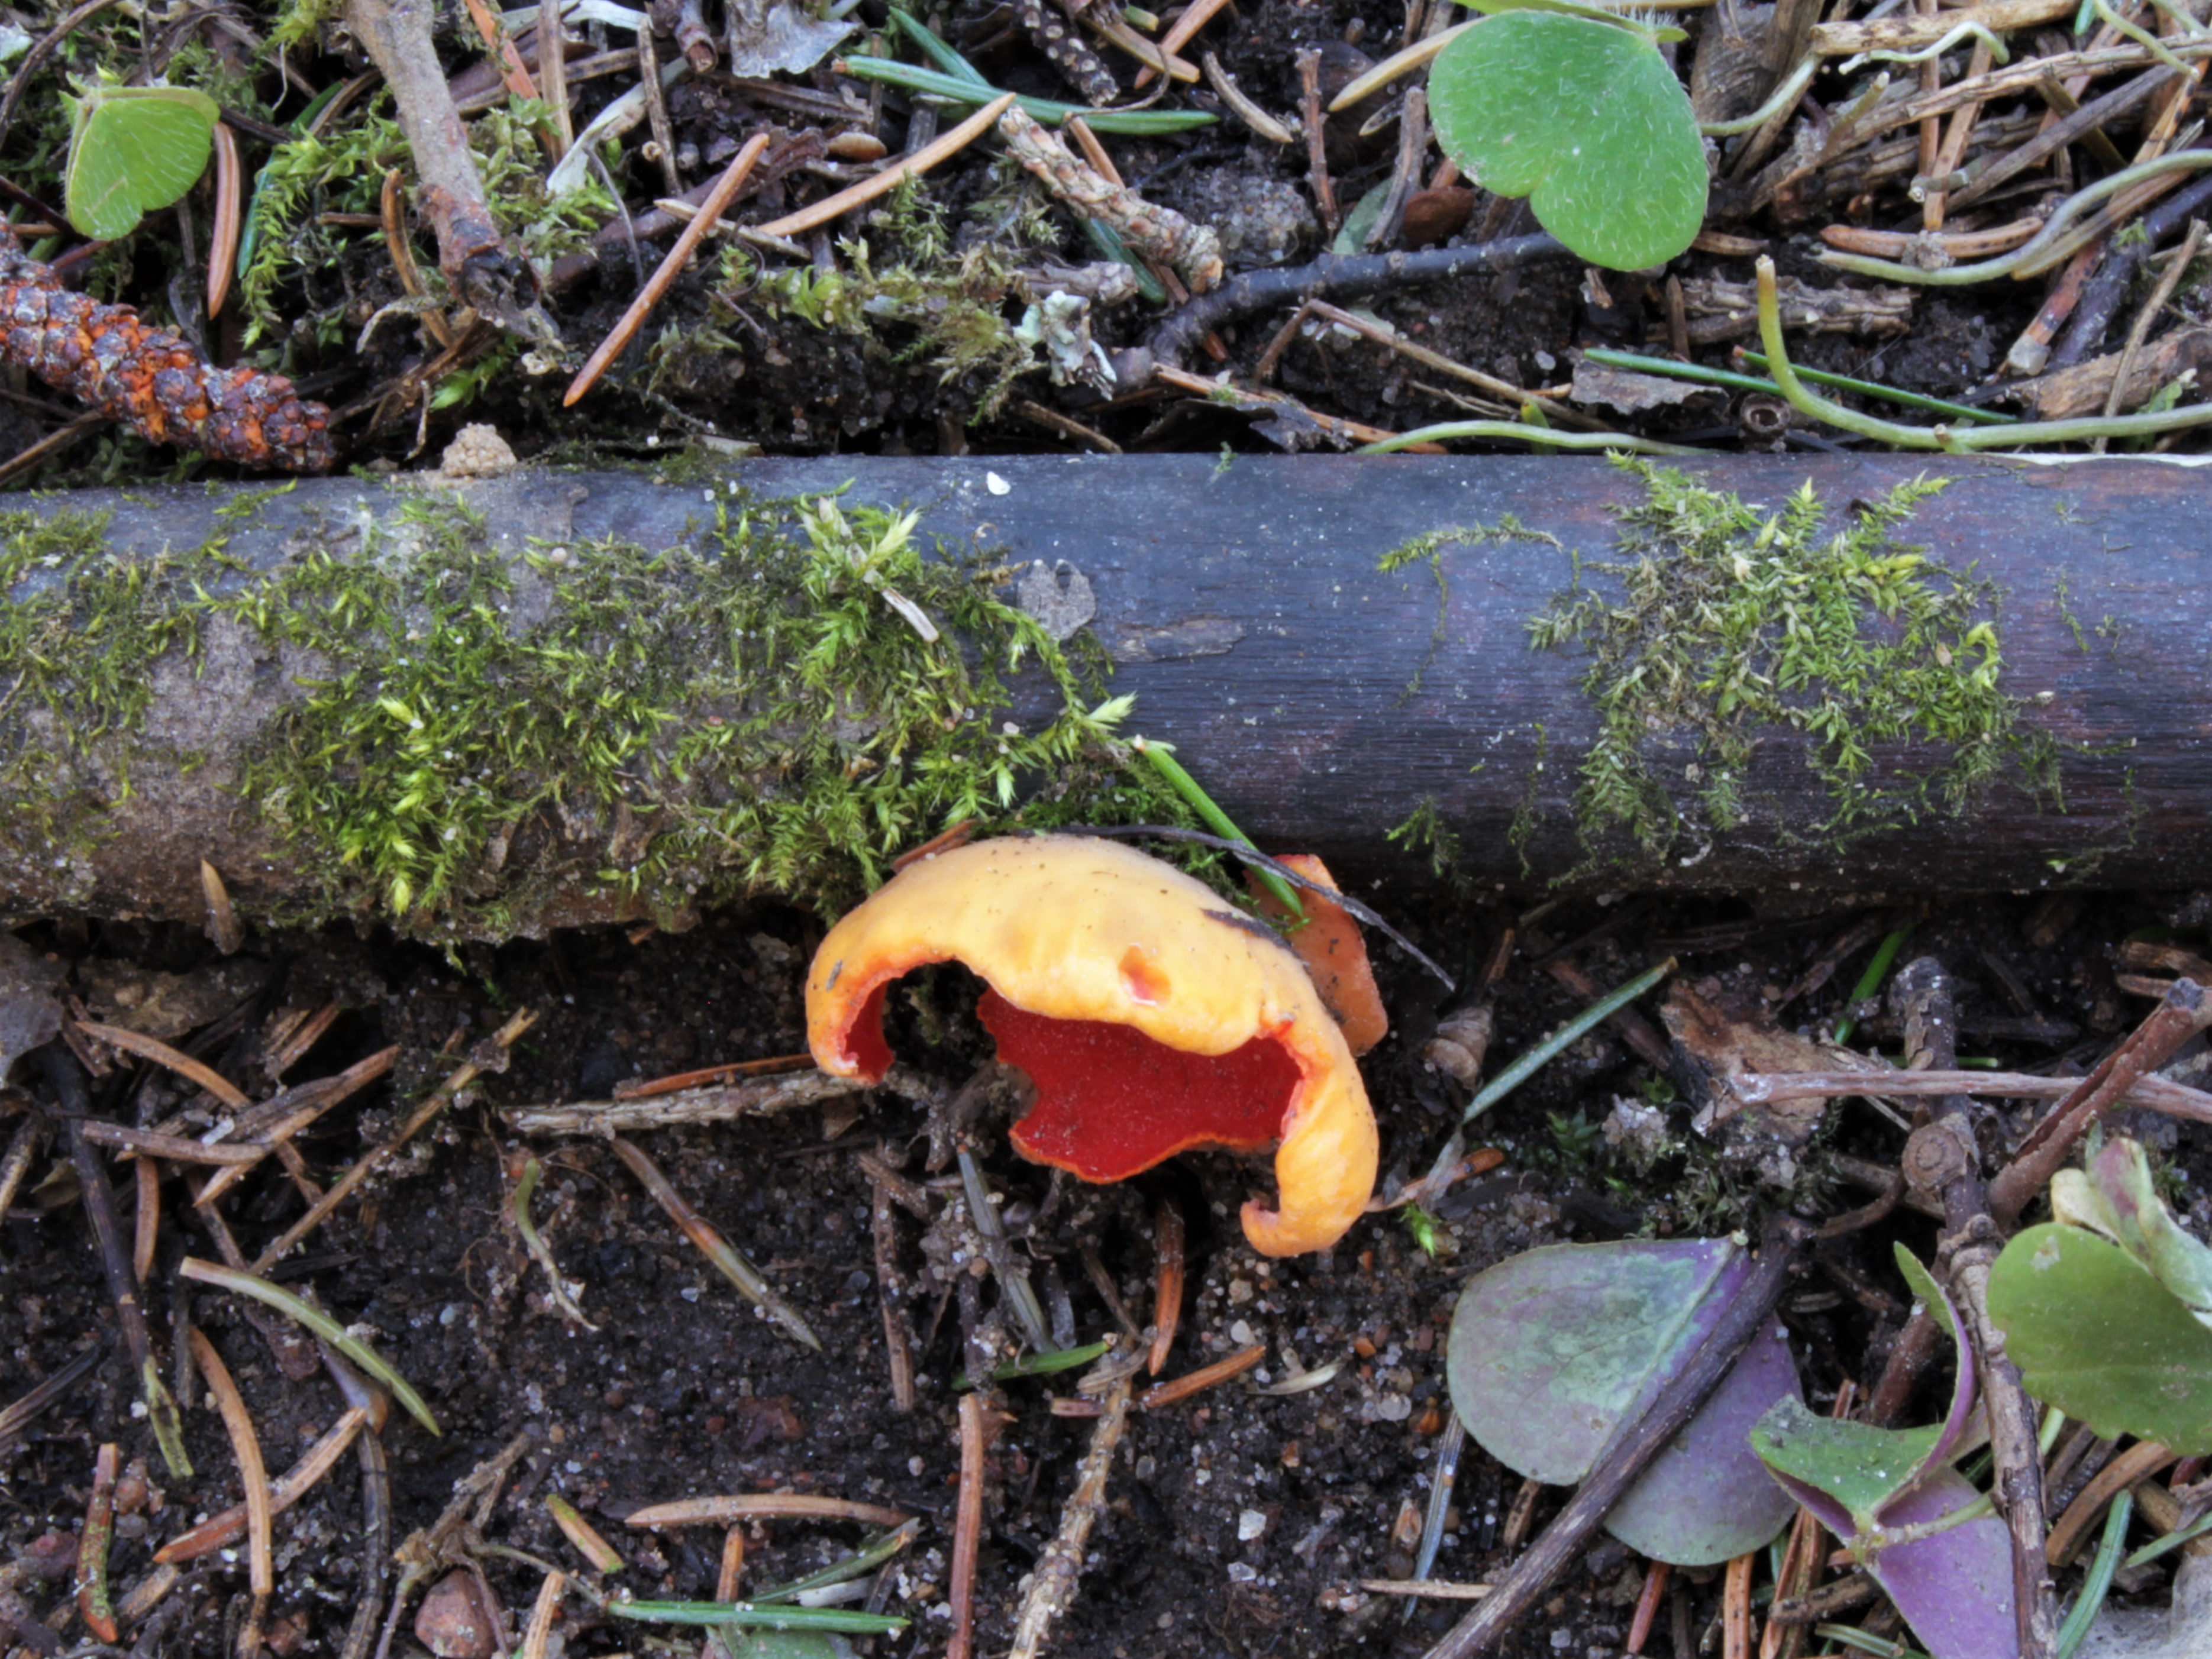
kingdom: Fungi
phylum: Ascomycota
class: Pezizomycetes
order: Pezizales
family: Sarcoscyphaceae
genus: Sarcoscypha
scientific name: Sarcoscypha austriaca
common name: Scarlet elfcup
